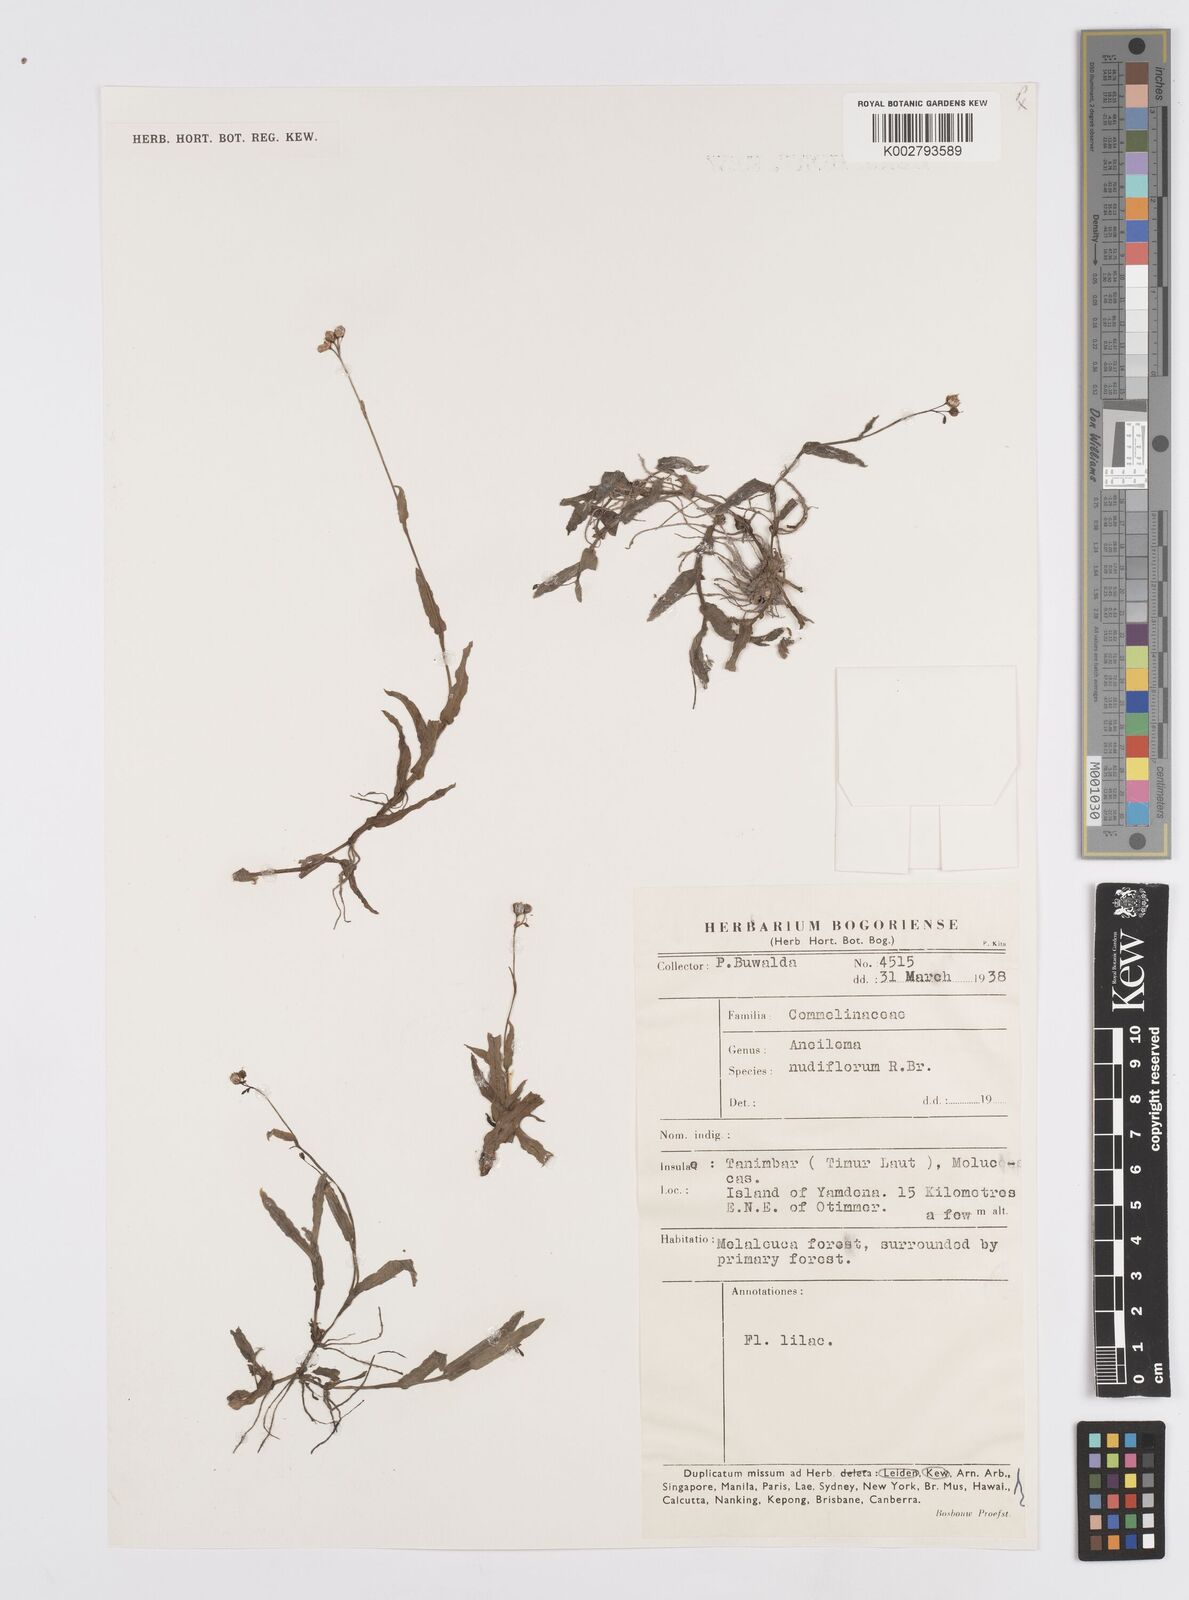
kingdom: Plantae
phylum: Tracheophyta
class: Liliopsida
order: Commelinales
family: Commelinaceae
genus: Murdannia
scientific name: Murdannia nudiflora
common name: Nakedstem dewflower
